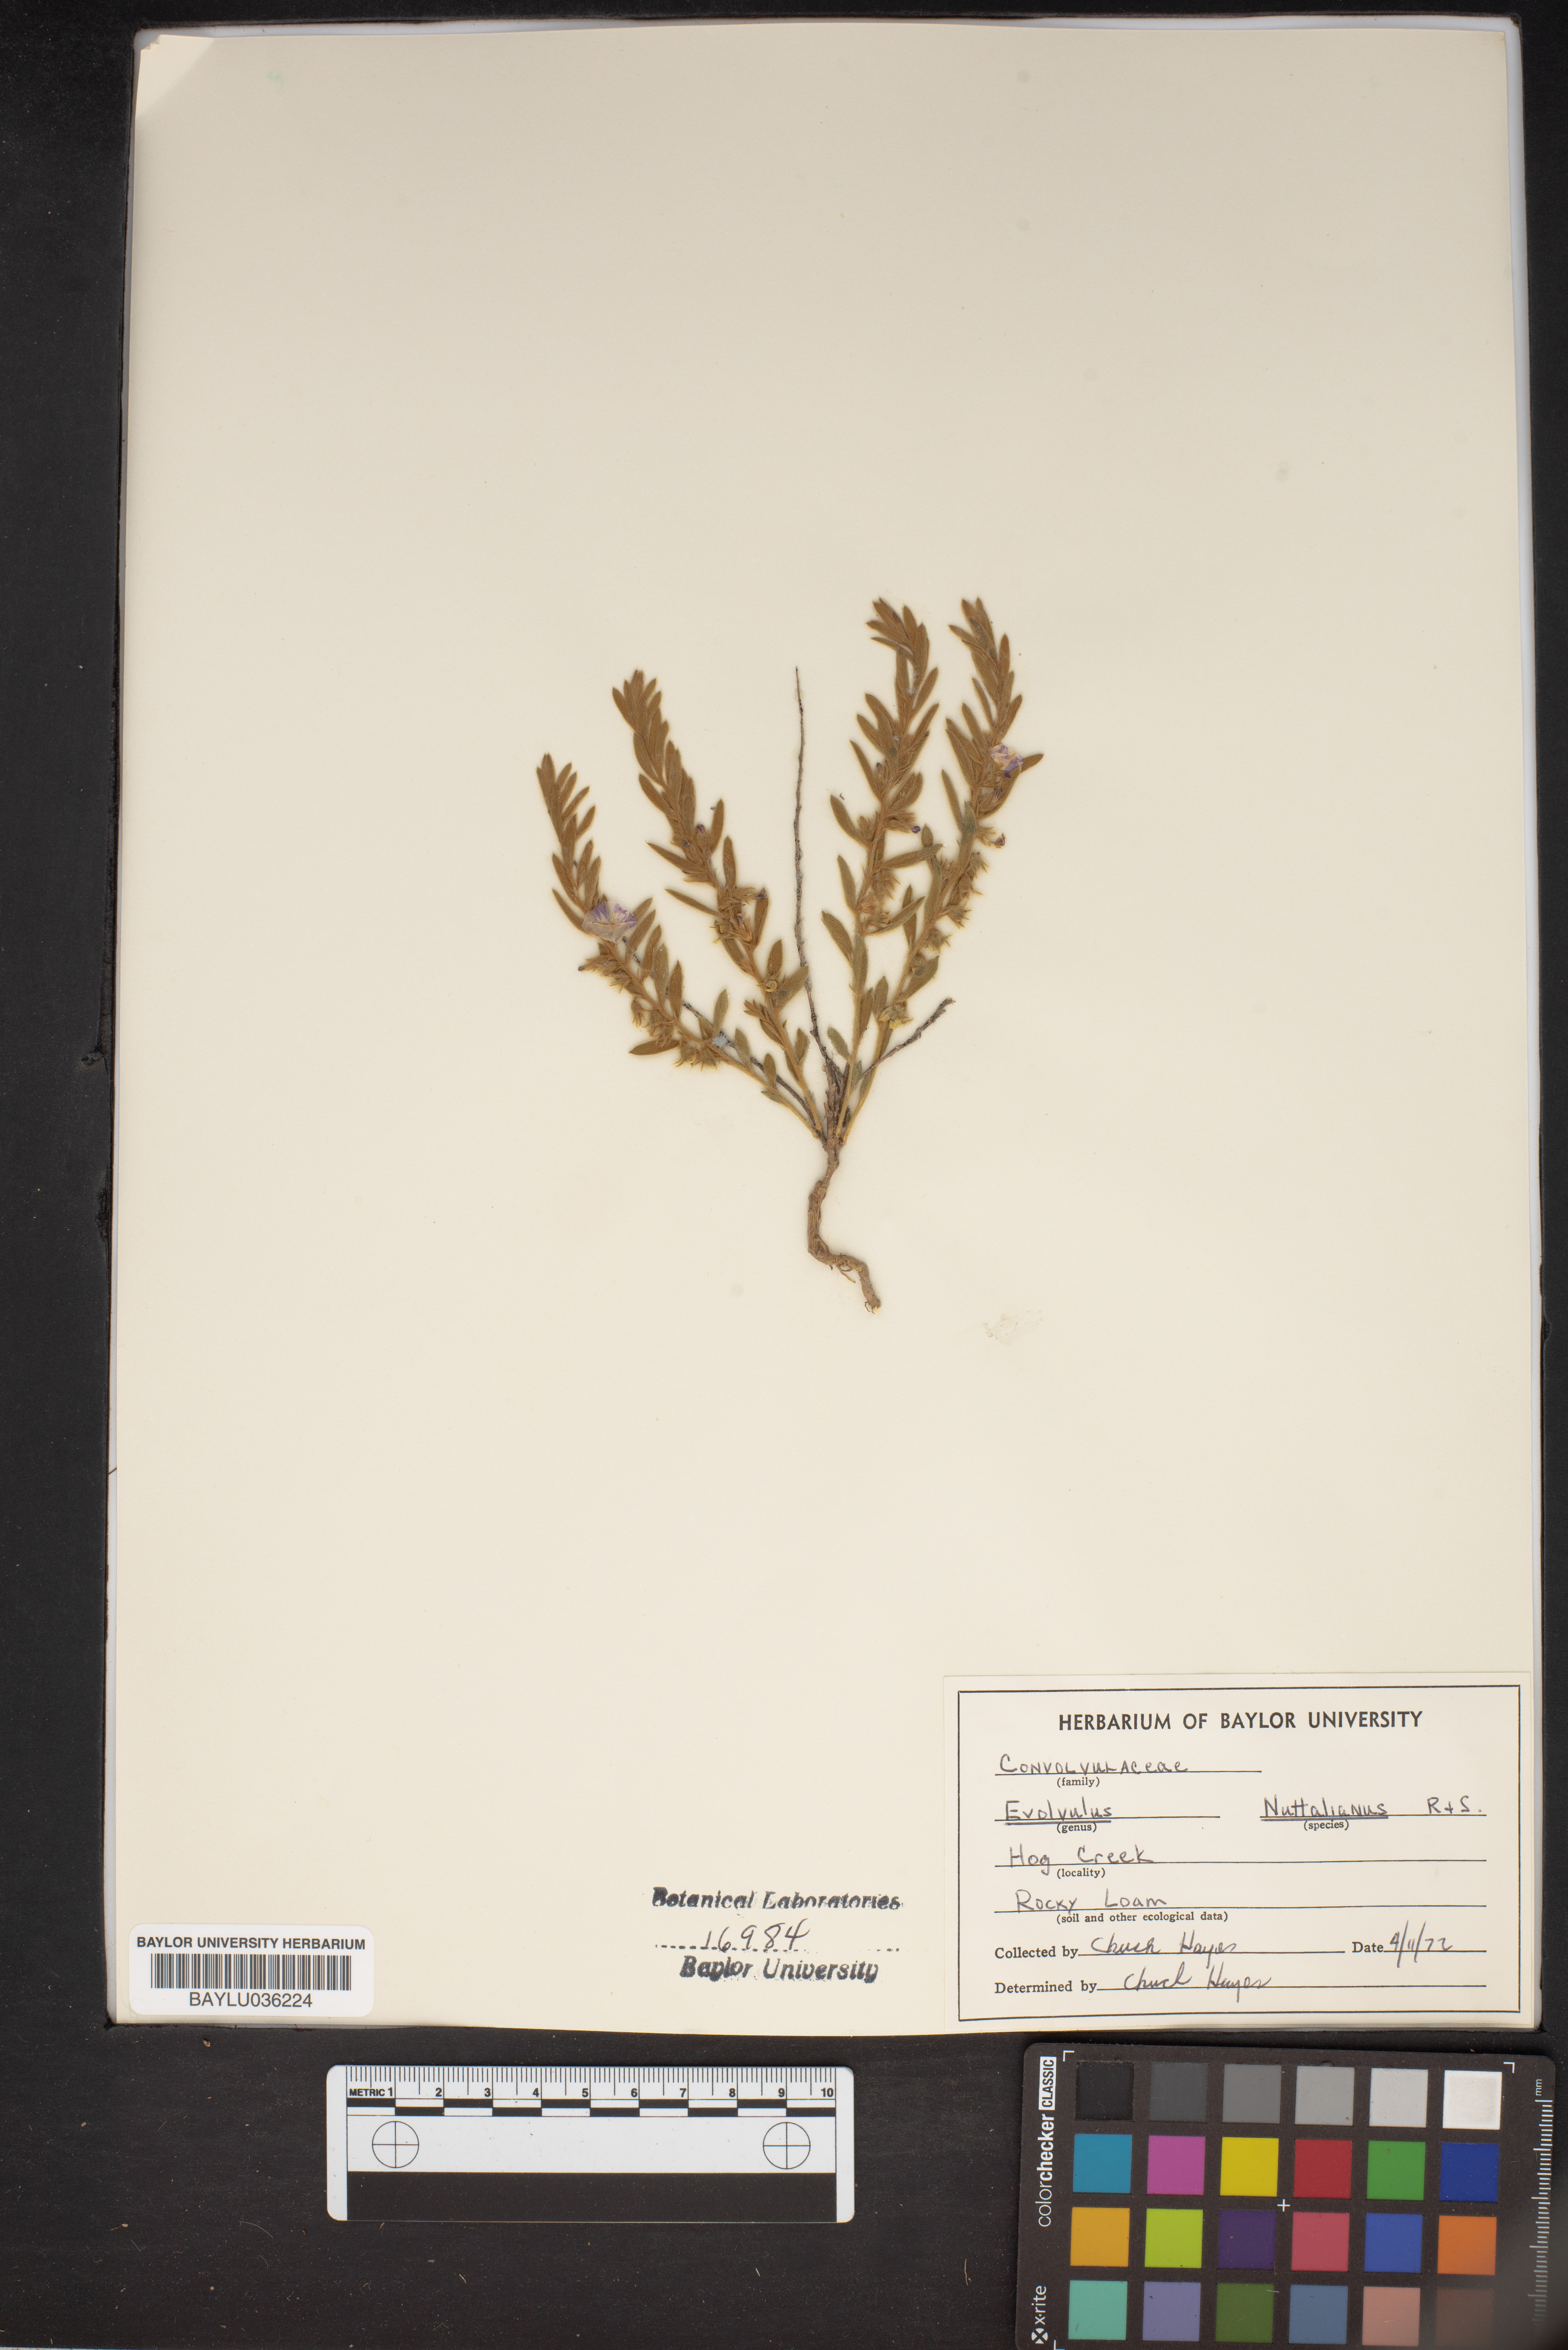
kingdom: Plantae
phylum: Tracheophyta
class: Magnoliopsida
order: Solanales
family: Convolvulaceae
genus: Evolvulus
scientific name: Evolvulus nuttallianus
